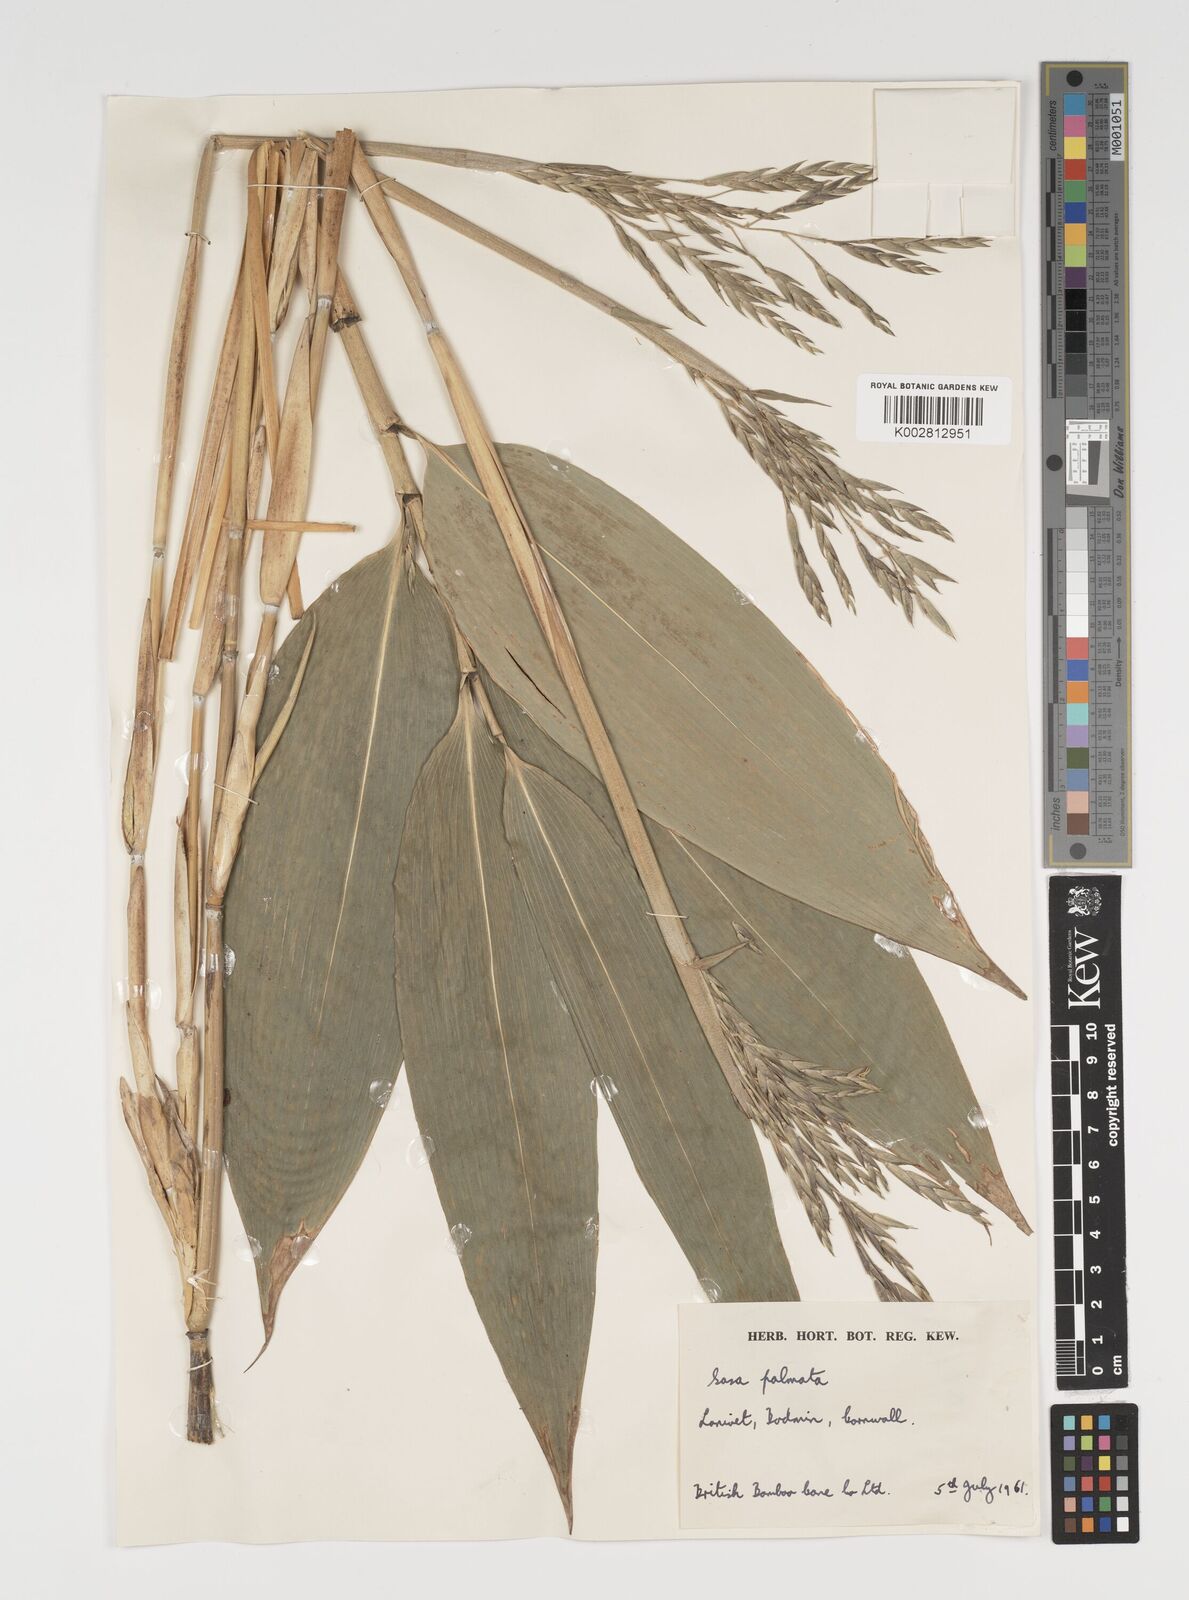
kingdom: Plantae
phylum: Tracheophyta
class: Liliopsida
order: Poales
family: Poaceae
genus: Sasa
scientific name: Sasa palmata
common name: Broad-leaved bamboo
